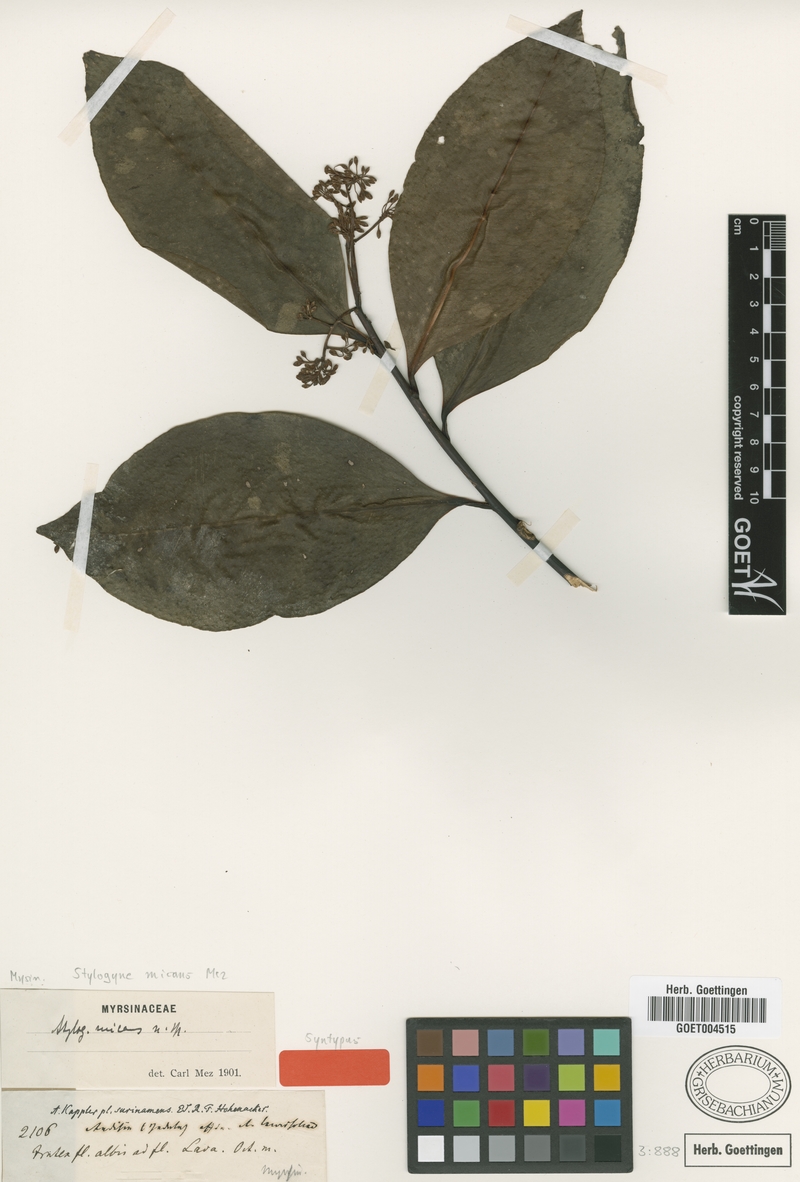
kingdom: Plantae
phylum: Tracheophyta
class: Magnoliopsida
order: Ericales
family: Primulaceae
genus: Stylogyne
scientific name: Stylogyne orinocensis
